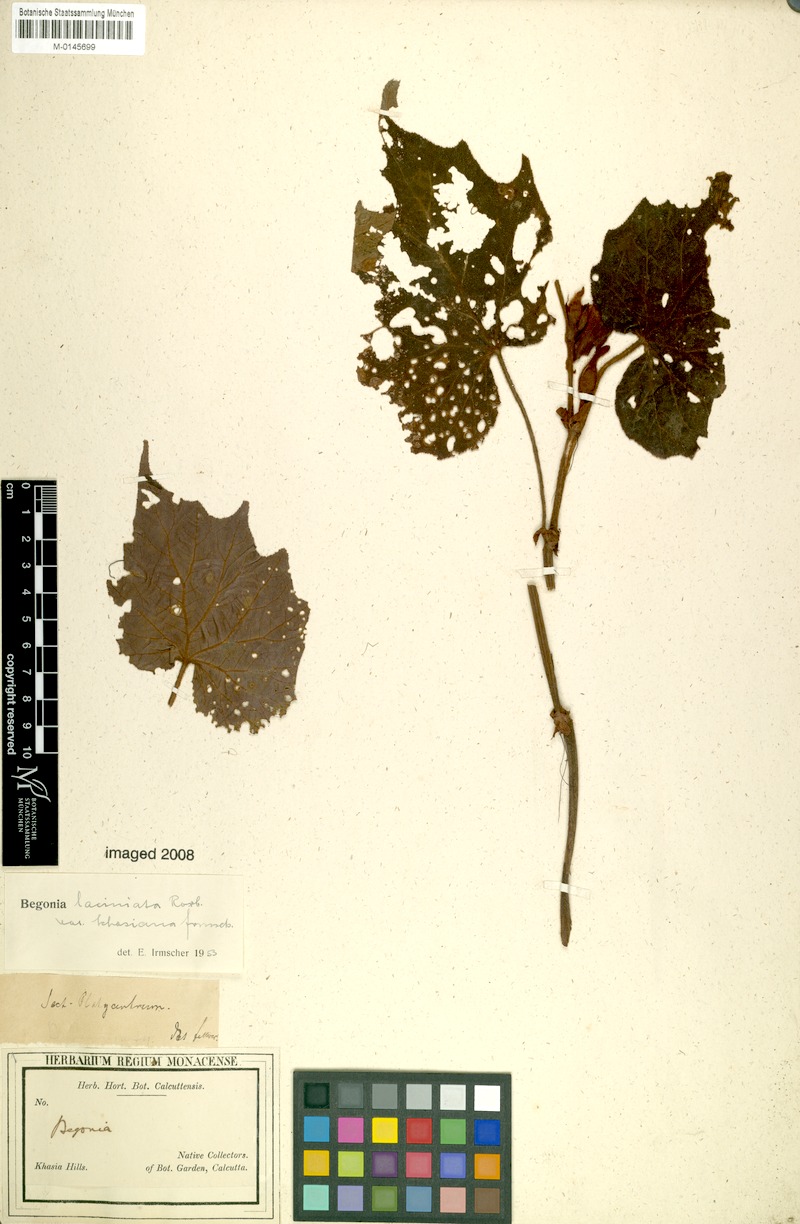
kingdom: Plantae
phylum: Tracheophyta
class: Magnoliopsida
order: Cucurbitales
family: Begoniaceae
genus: Begonia
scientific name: Begonia palmata
